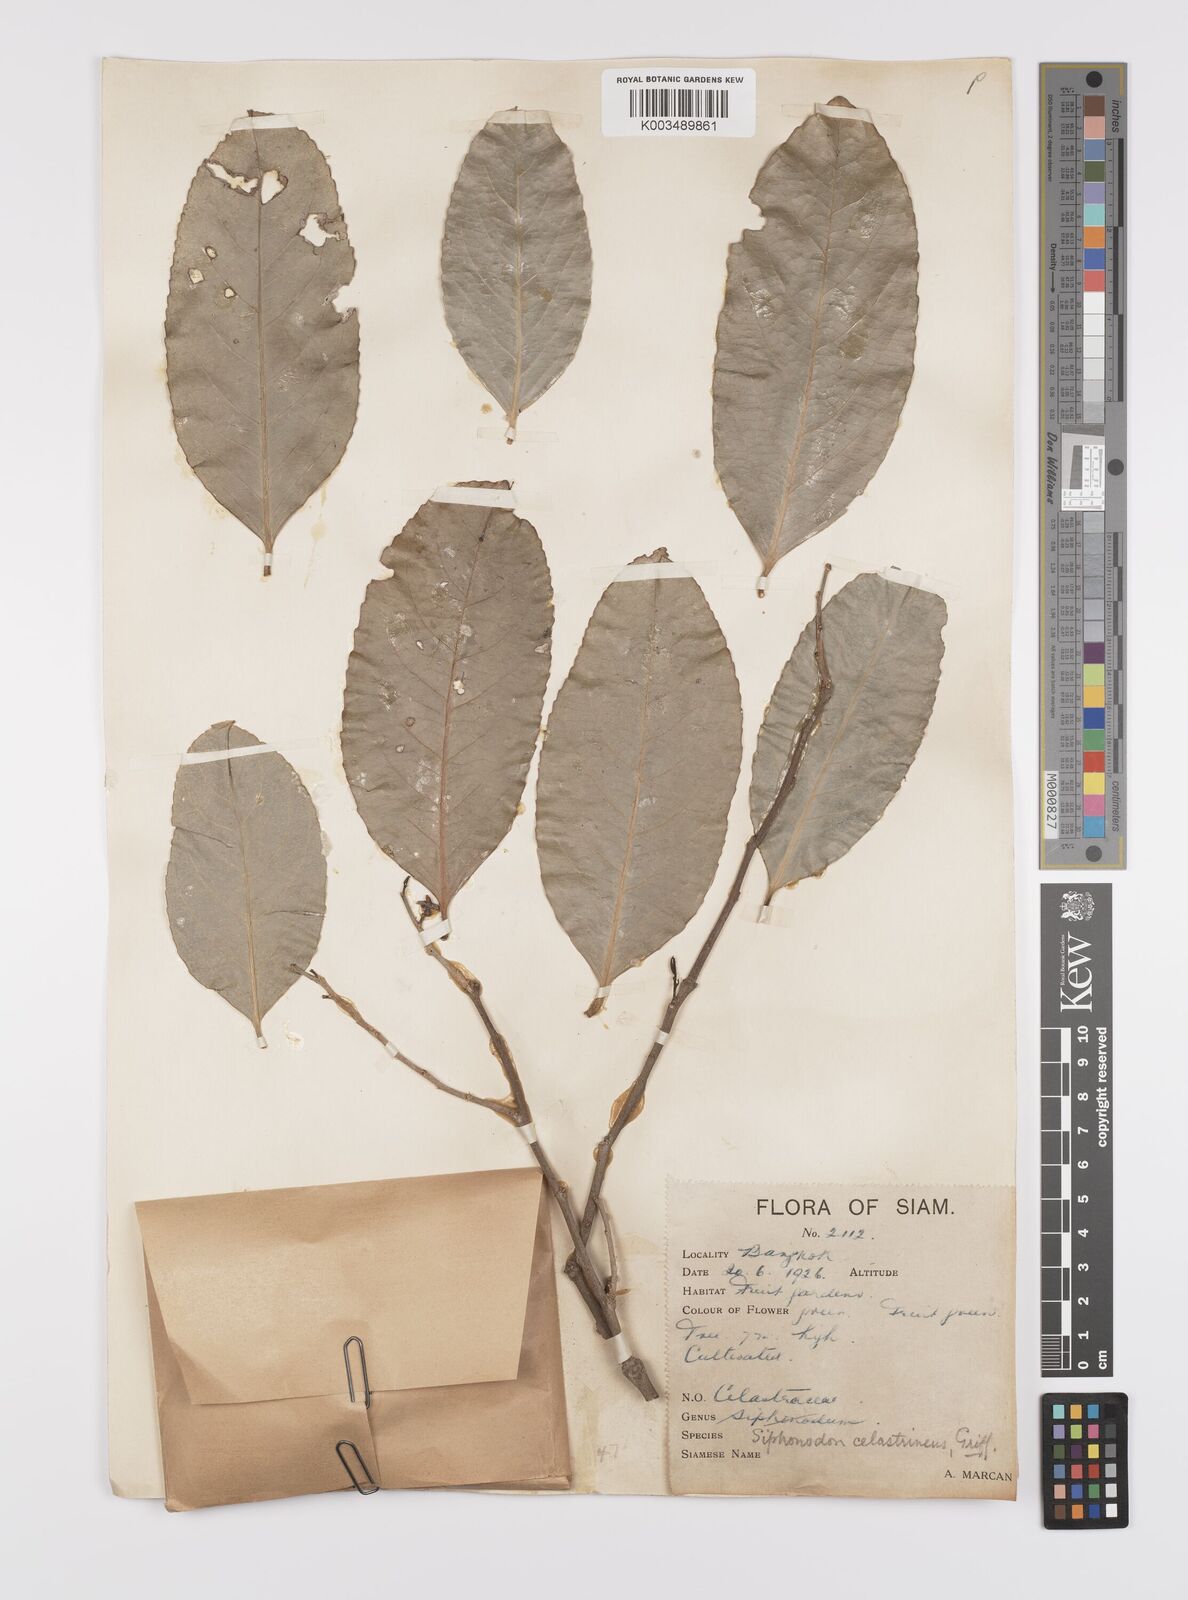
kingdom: Plantae
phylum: Tracheophyta
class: Magnoliopsida
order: Celastrales
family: Celastraceae
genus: Siphonodon
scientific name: Siphonodon celastrineus
